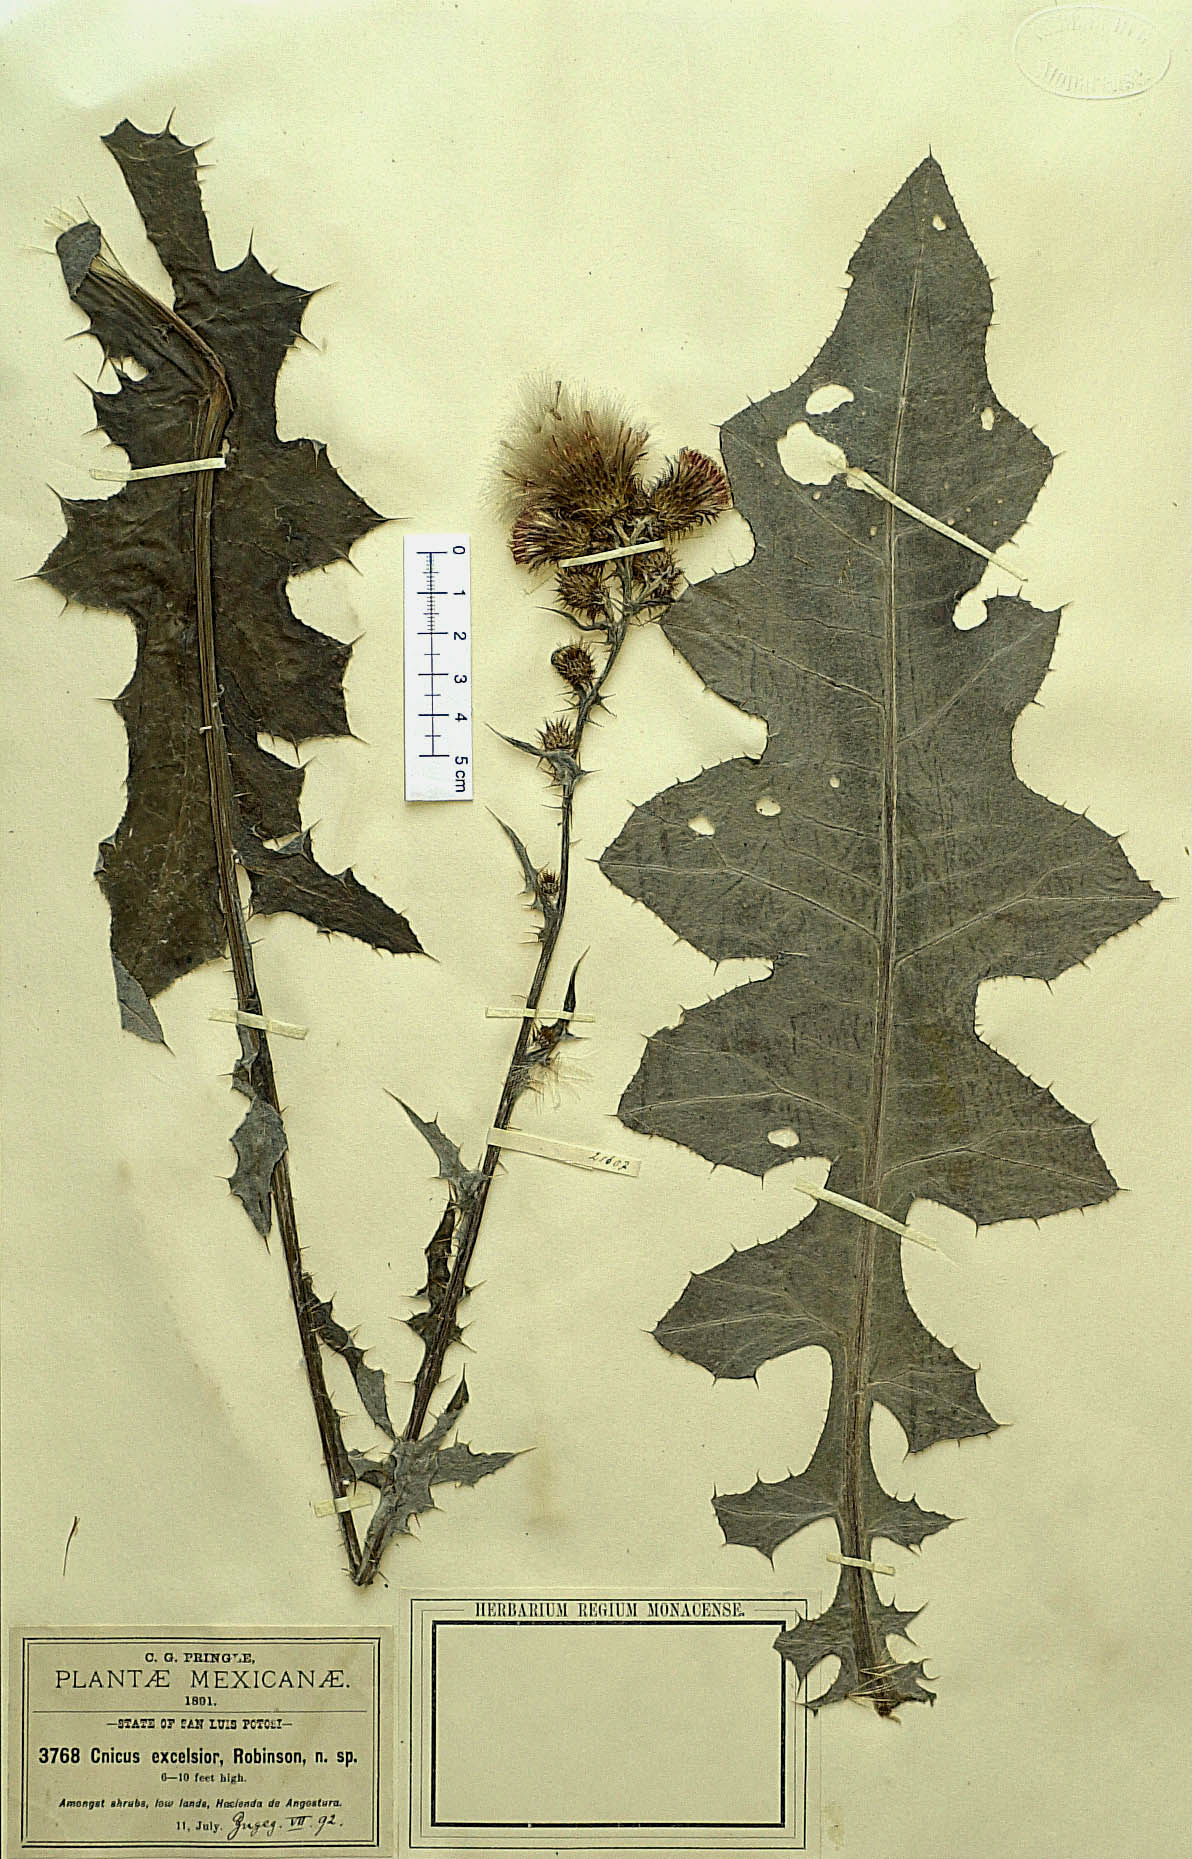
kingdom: Plantae
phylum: Tracheophyta
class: Magnoliopsida
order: Asterales
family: Asteraceae
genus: Cirsium
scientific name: Cirsium excelsius
